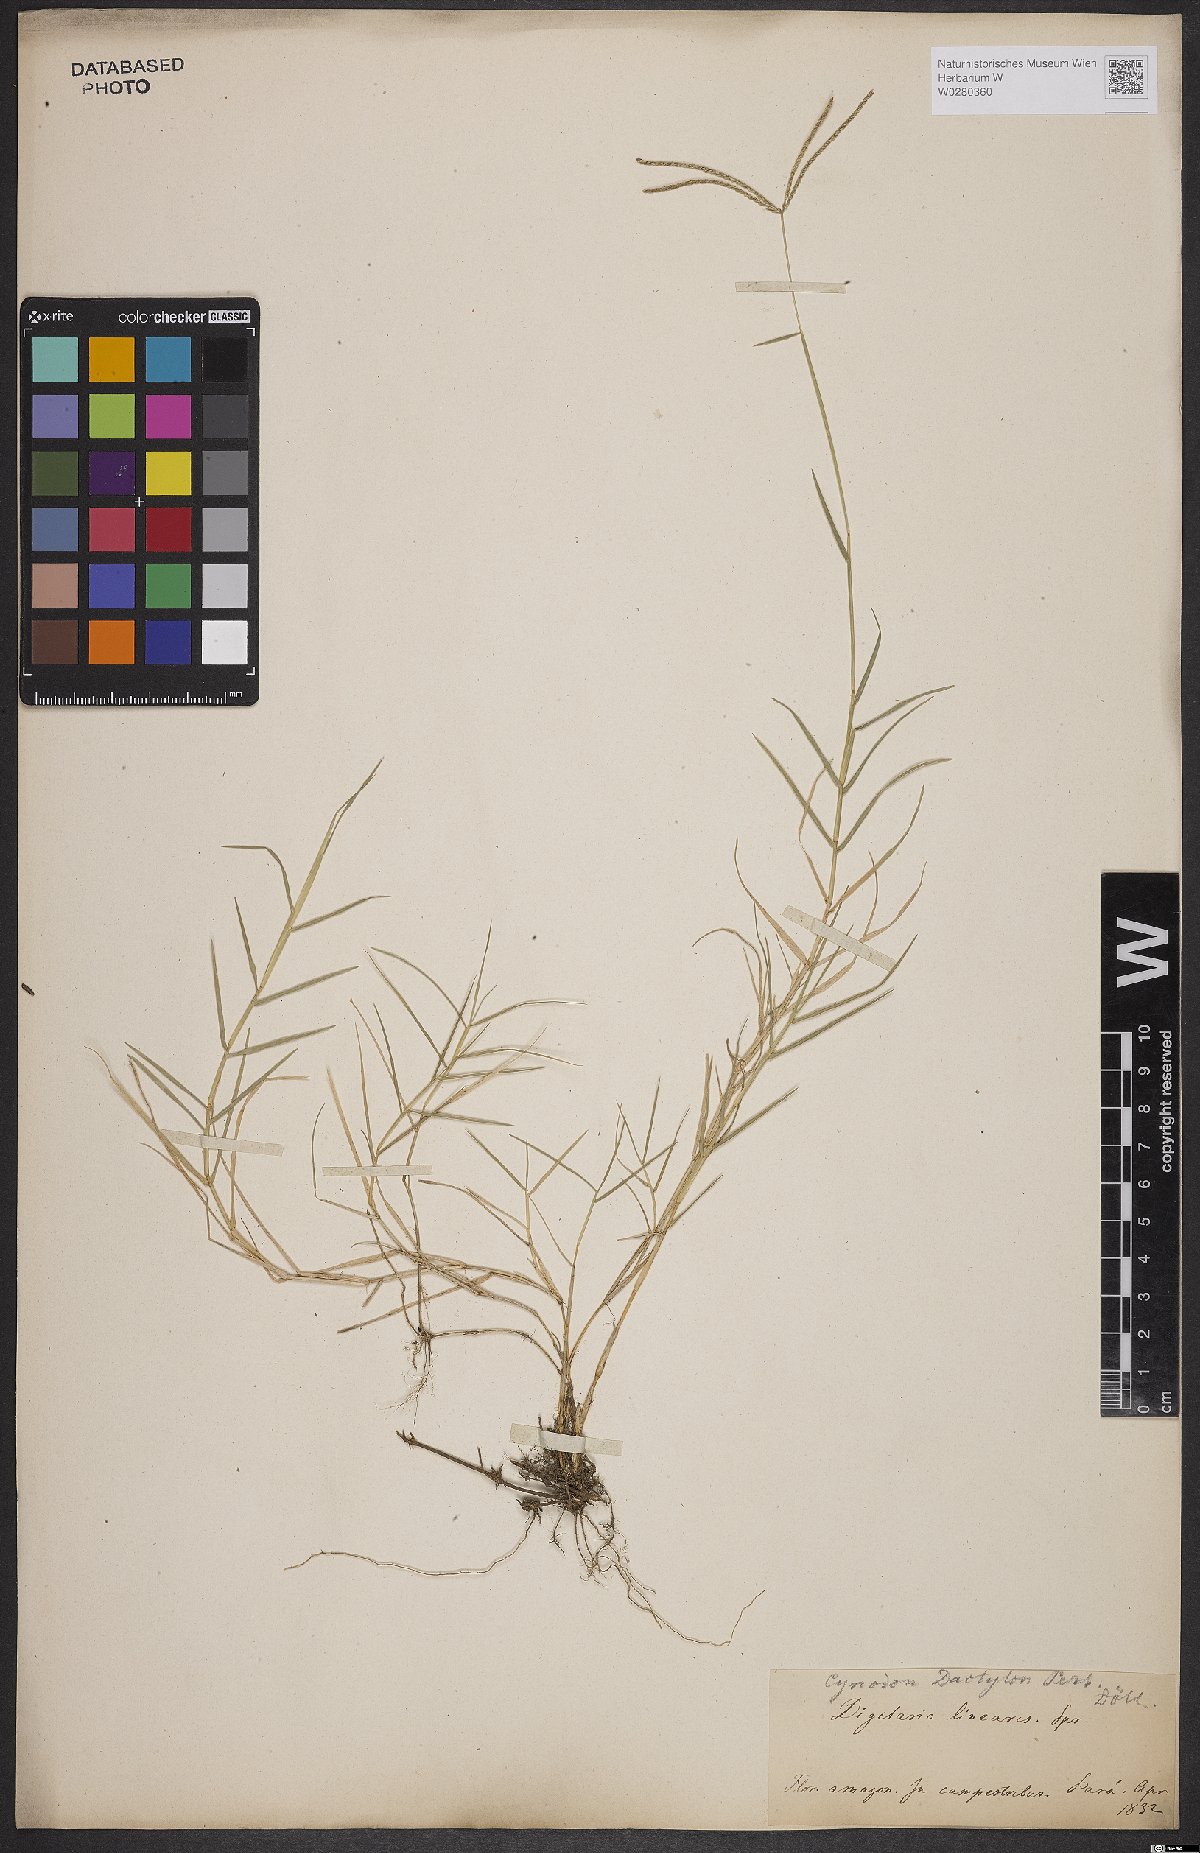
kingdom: Plantae
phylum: Tracheophyta
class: Liliopsida
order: Poales
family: Poaceae
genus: Cynodon
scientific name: Cynodon dactylon
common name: Bermuda grass
